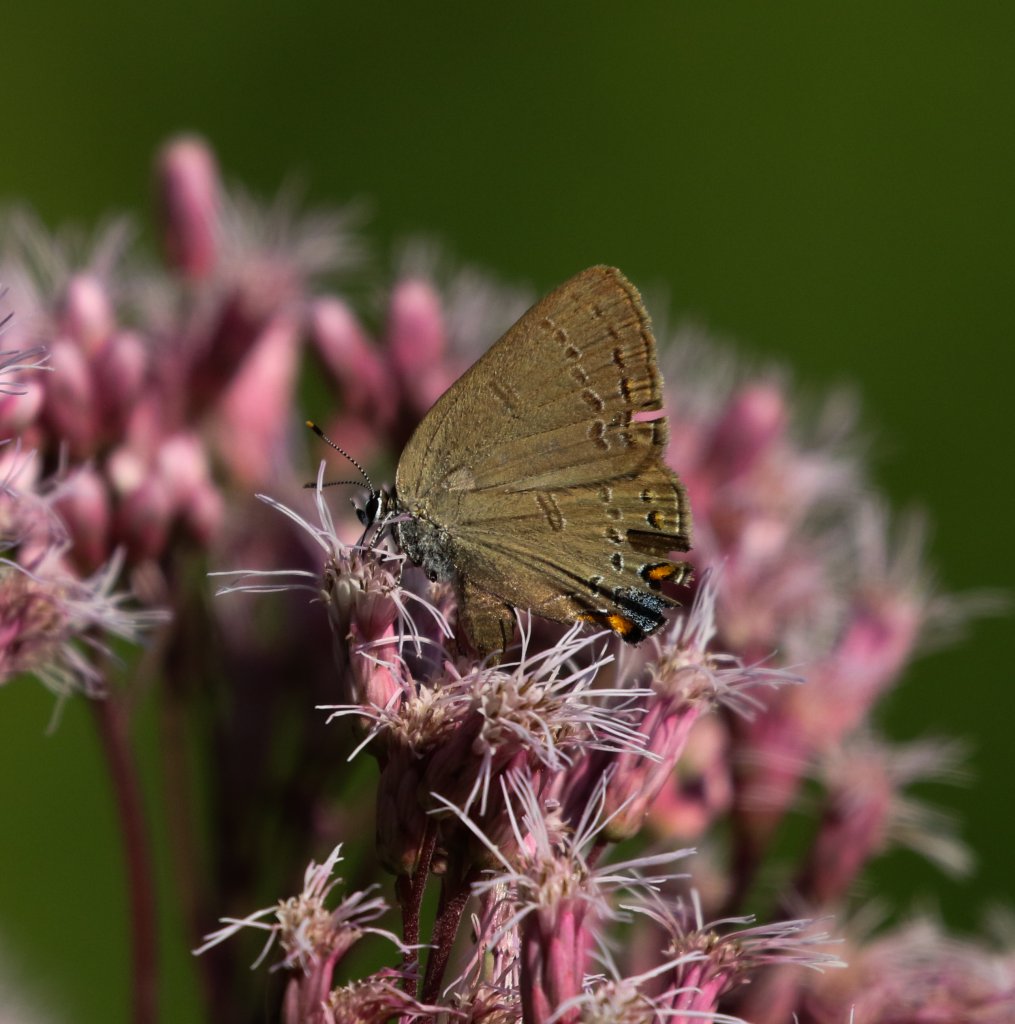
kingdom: Animalia
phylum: Arthropoda
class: Insecta
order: Lepidoptera
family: Lycaenidae
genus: Satyrium
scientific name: Satyrium edwardsii
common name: Edwards' Hairstreak
